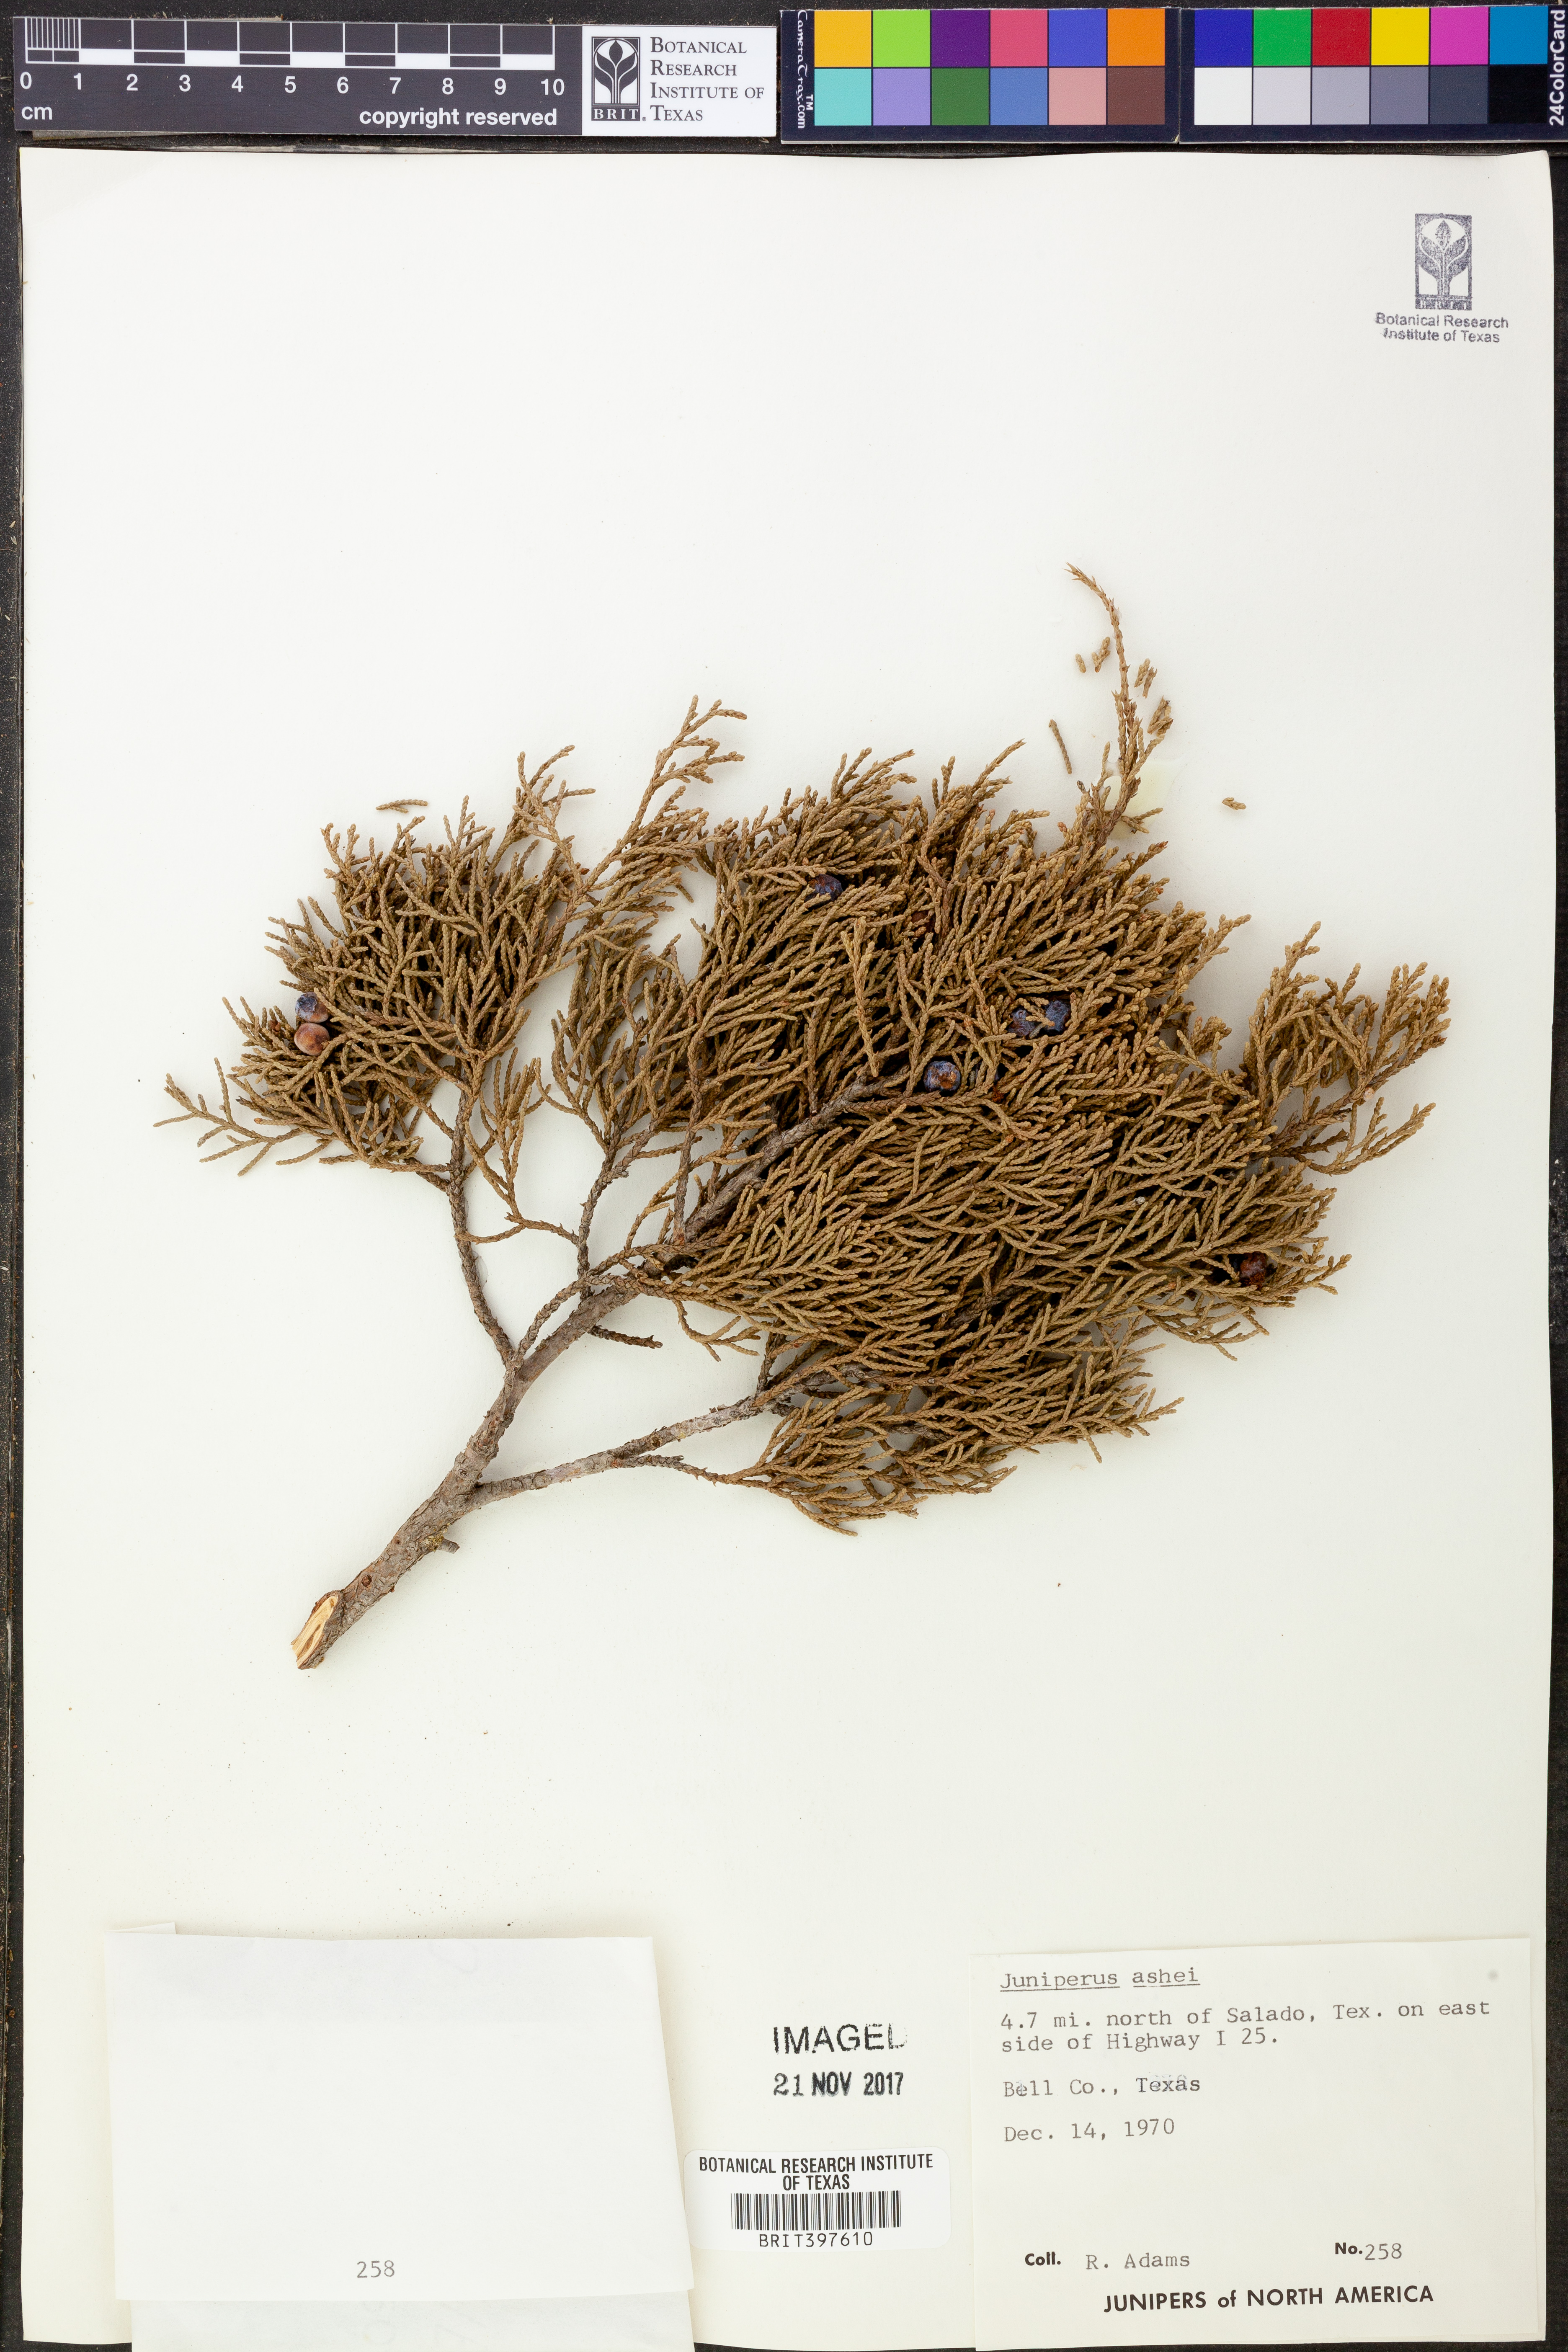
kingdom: Plantae
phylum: Tracheophyta
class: Pinopsida
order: Pinales
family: Cupressaceae
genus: Juniperus
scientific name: Juniperus ashei
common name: Mexican juniper
